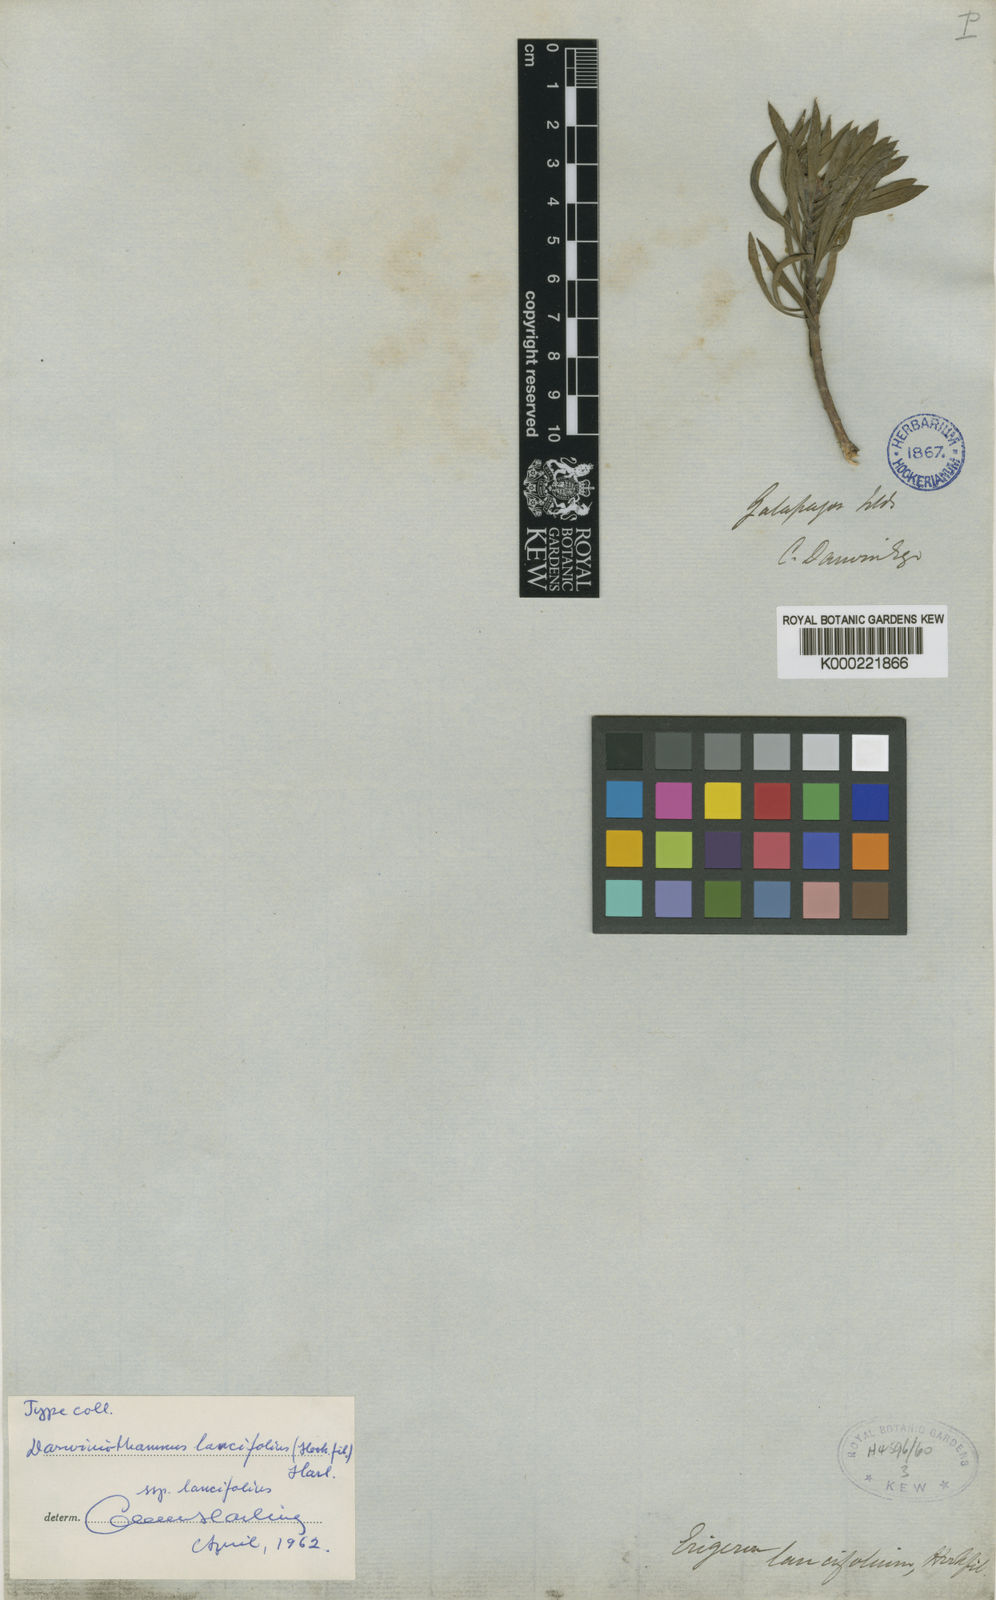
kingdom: Plantae
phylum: Tracheophyta
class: Magnoliopsida
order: Asterales
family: Asteraceae
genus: Erigeron
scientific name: Erigeron lancifolius
